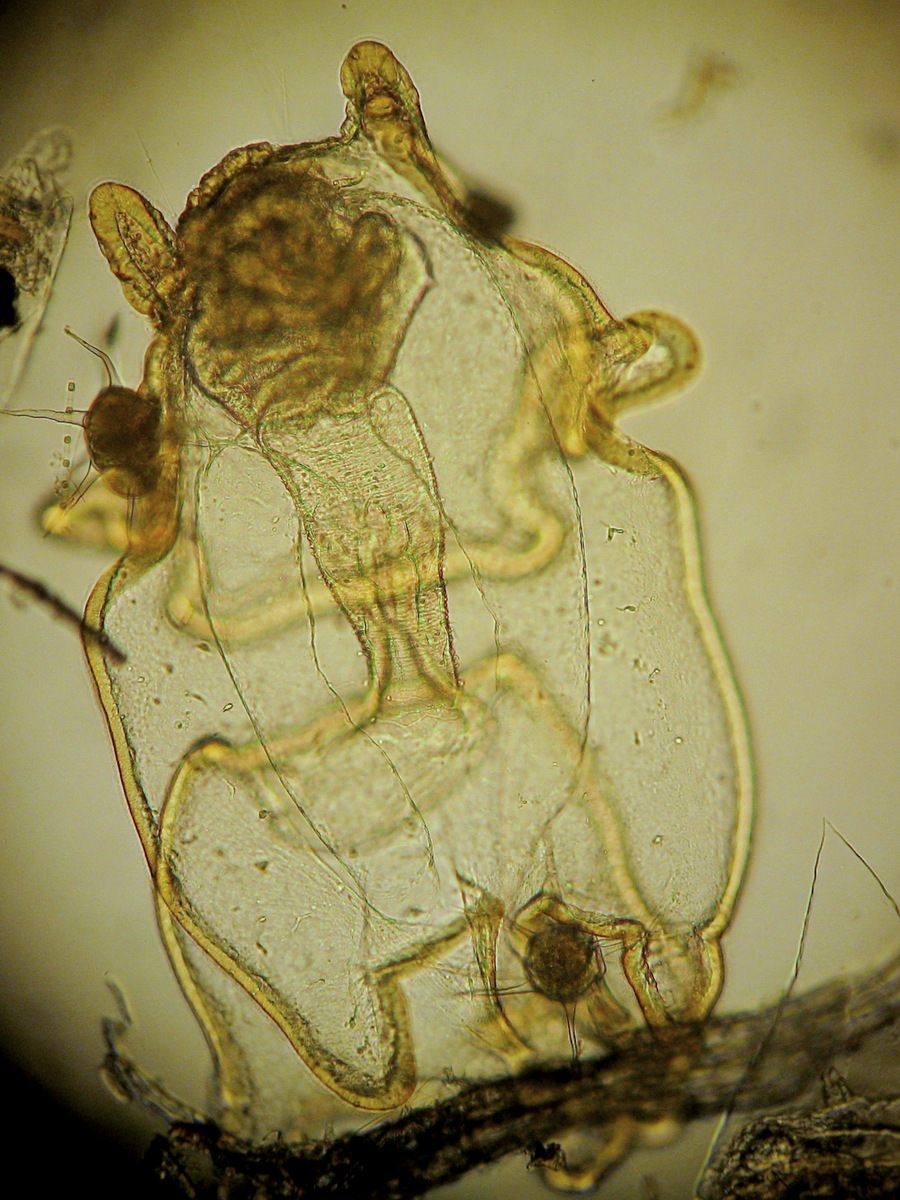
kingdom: Animalia
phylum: Echinodermata
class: Asteroidea
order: Forcipulatida
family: Asteriidae
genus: Asterias
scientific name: Asterias rubens
